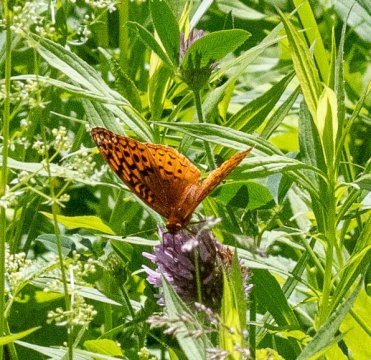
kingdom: Animalia
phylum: Arthropoda
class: Insecta
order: Lepidoptera
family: Nymphalidae
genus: Speyeria
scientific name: Speyeria cybele
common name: Great Spangled Fritillary
